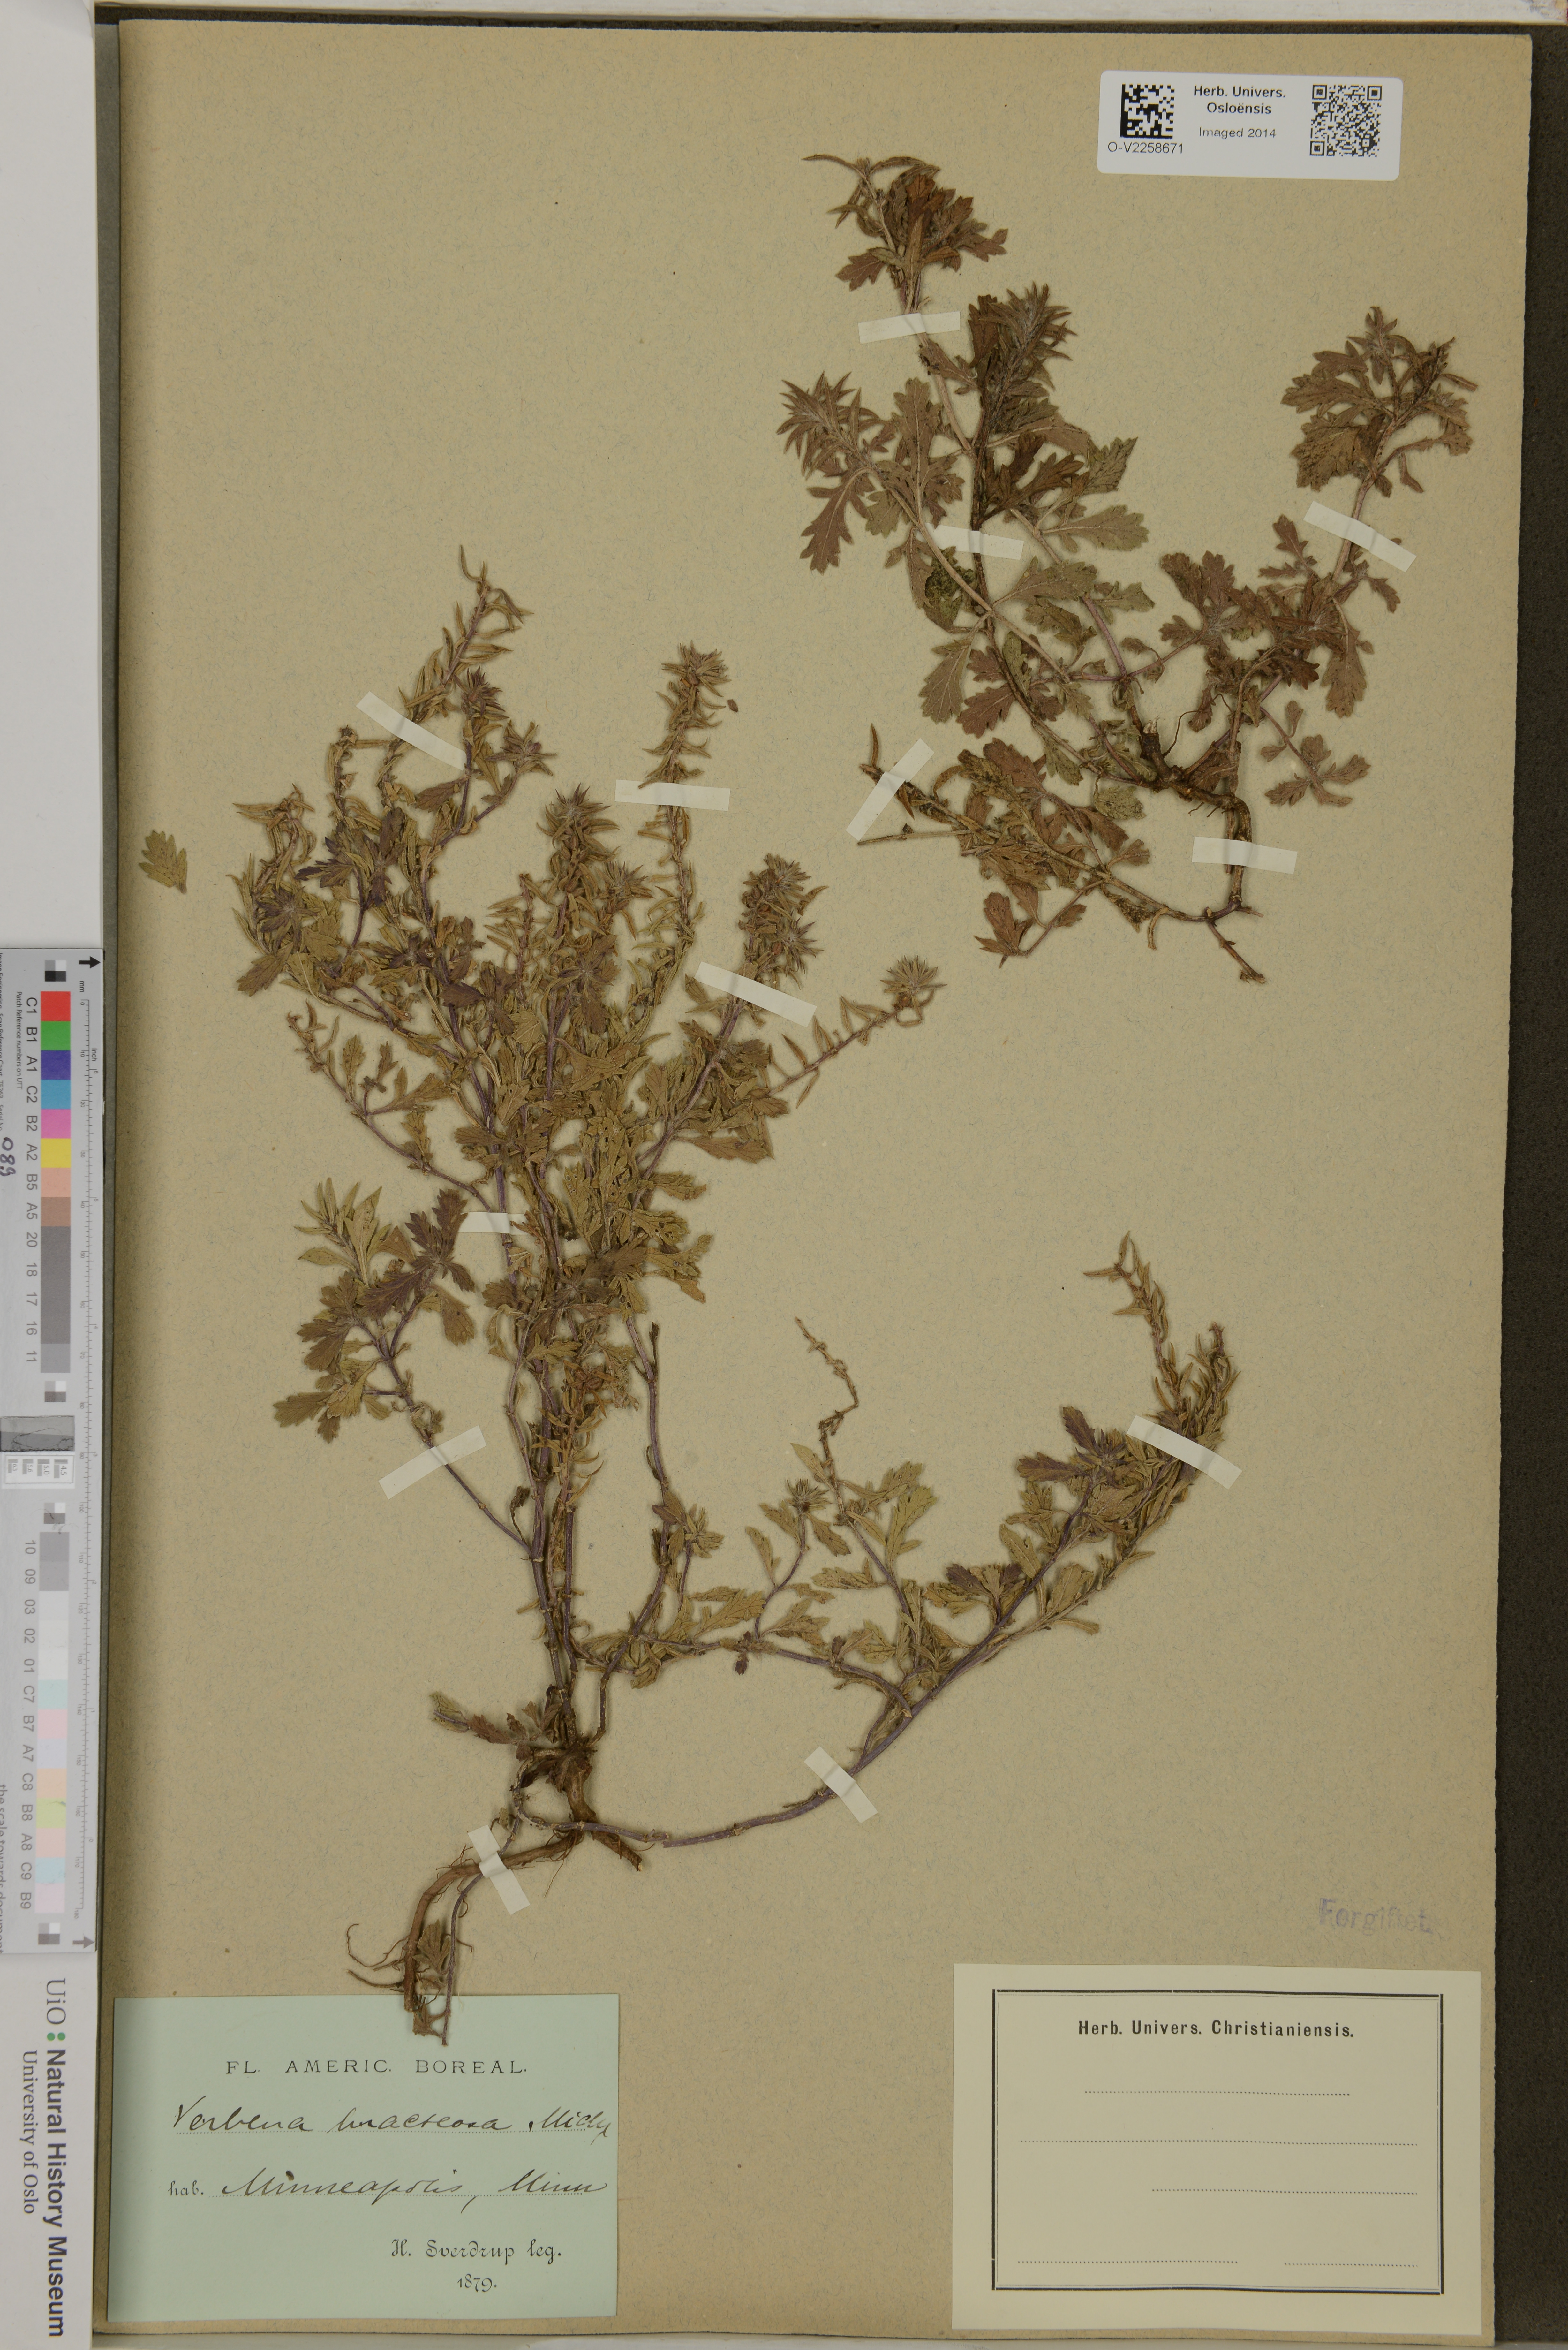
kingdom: Plantae
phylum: Tracheophyta
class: Magnoliopsida
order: Lamiales
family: Verbenaceae
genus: Verbena
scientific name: Verbena bracteata
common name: Bracted vervain
